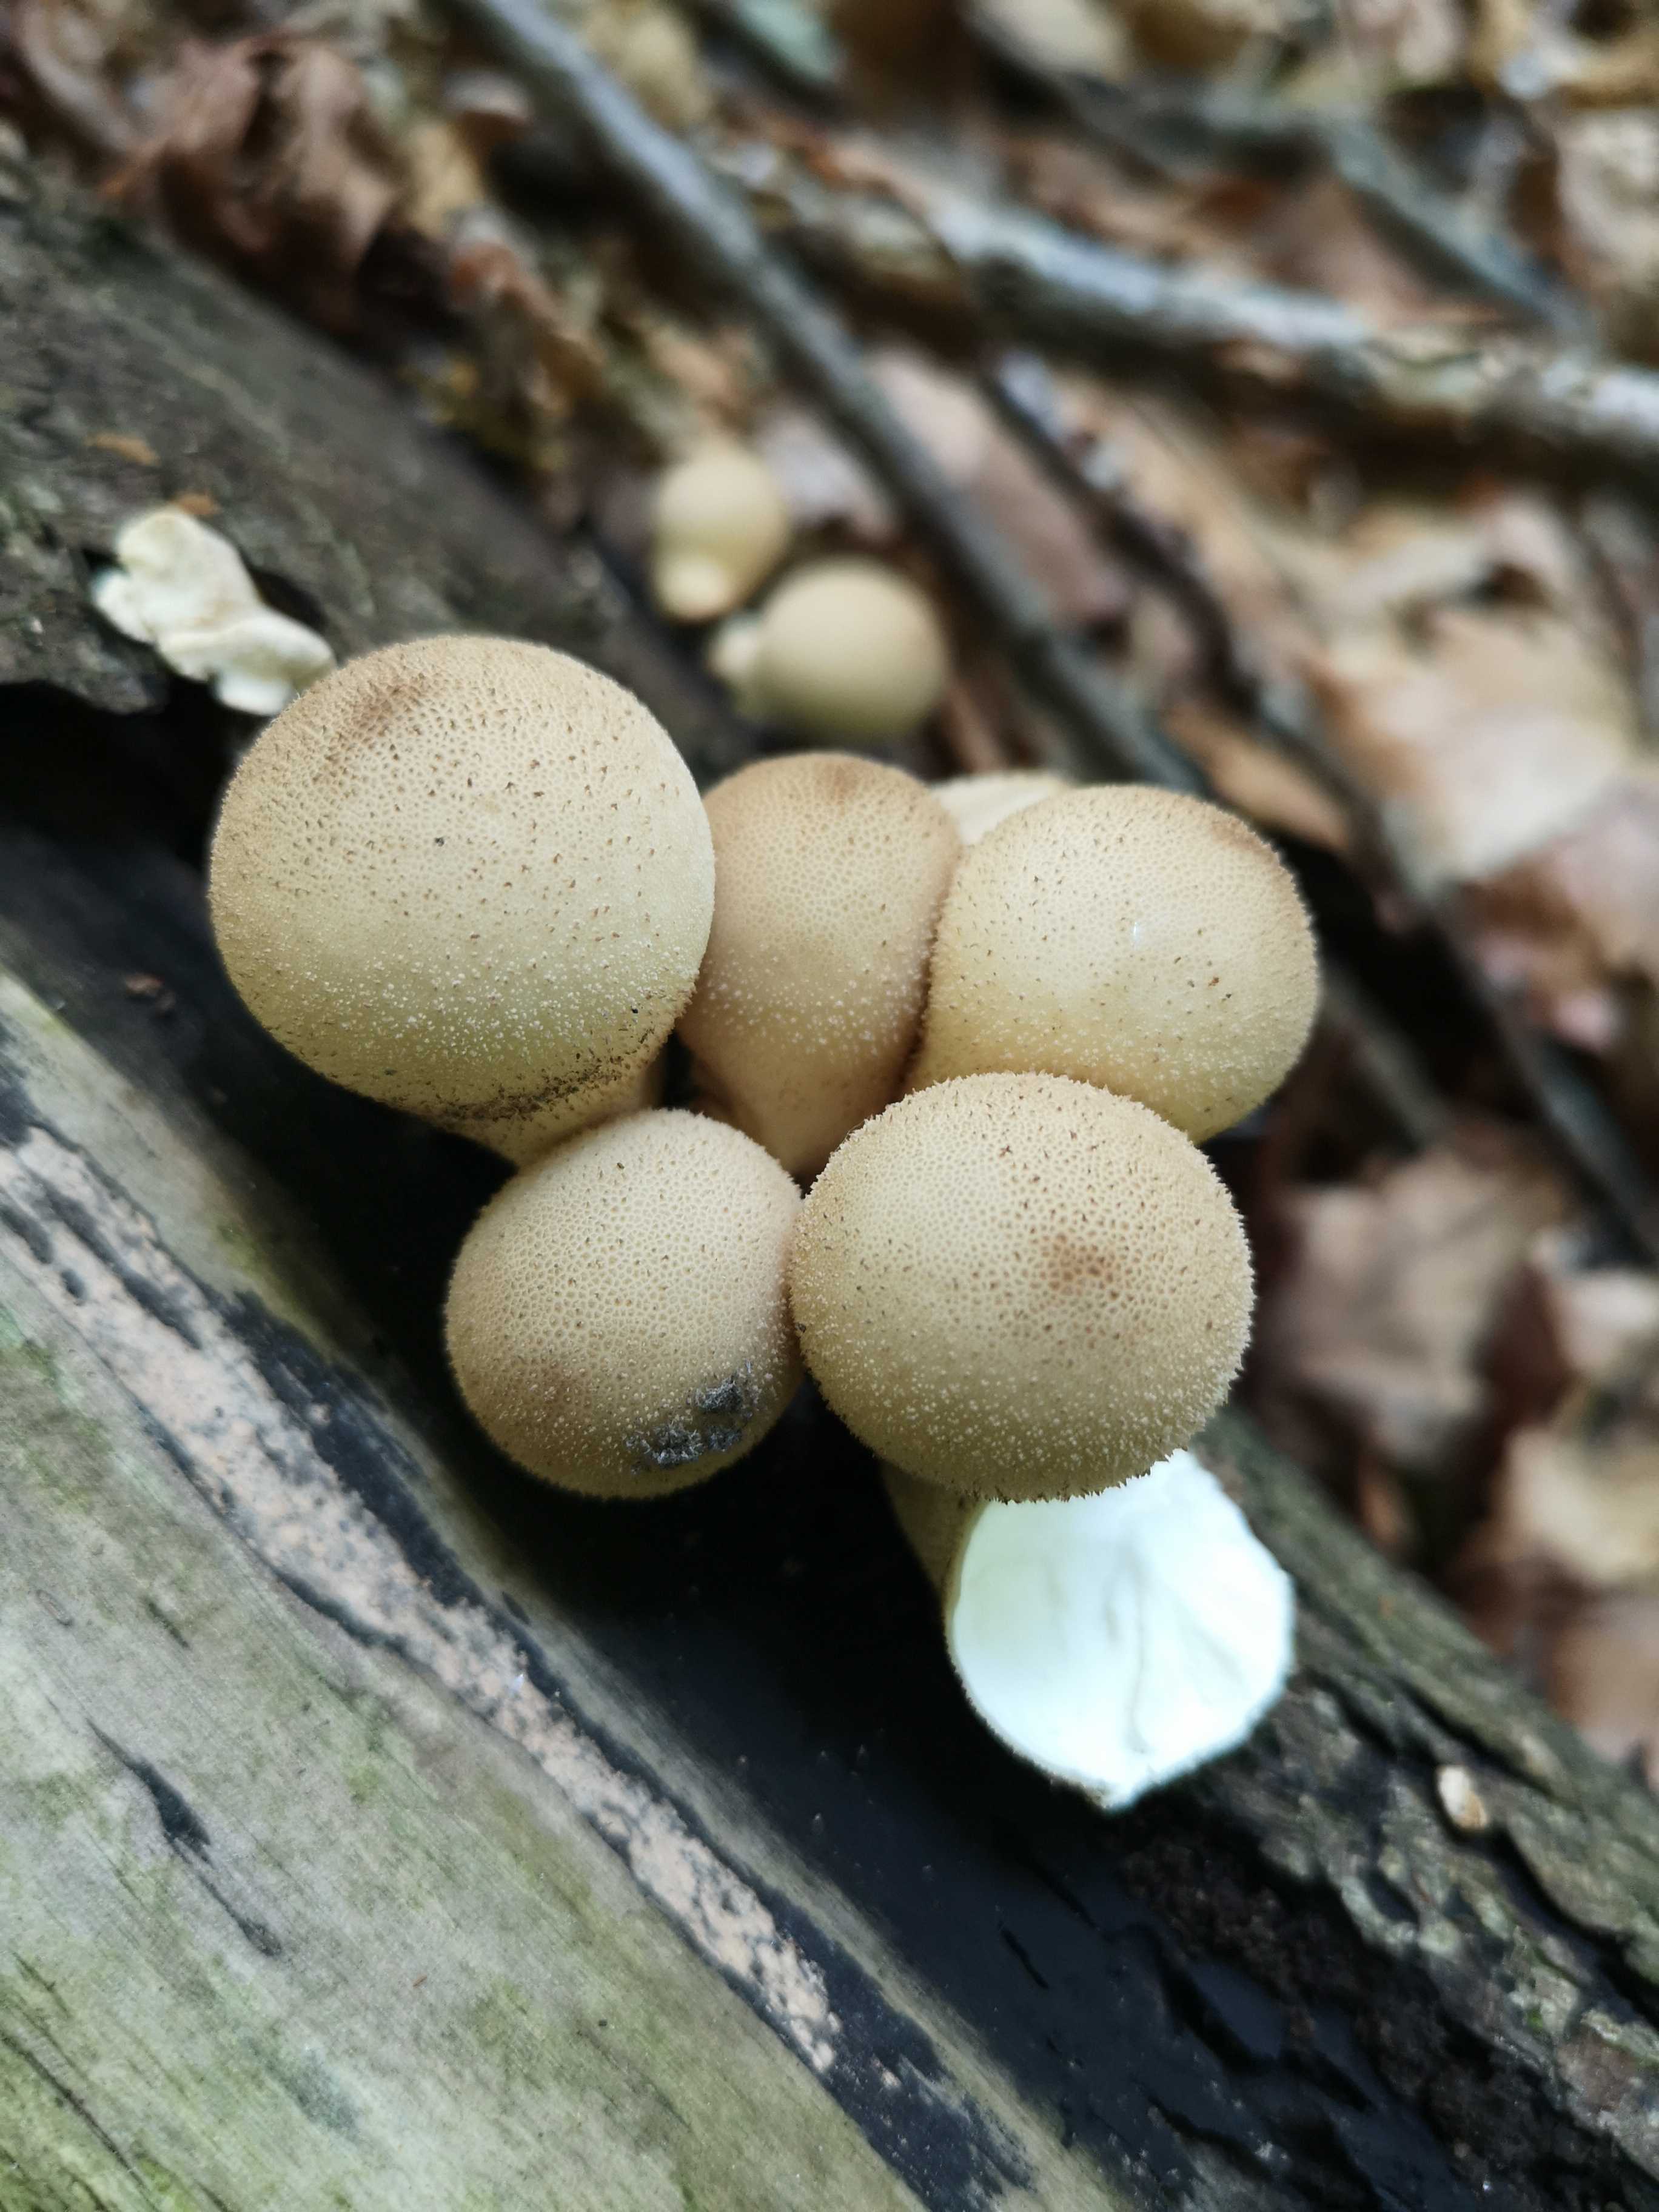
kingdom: Fungi
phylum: Basidiomycota
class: Agaricomycetes
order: Agaricales
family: Lycoperdaceae
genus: Apioperdon
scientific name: Apioperdon pyriforme
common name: pære-støvbold
